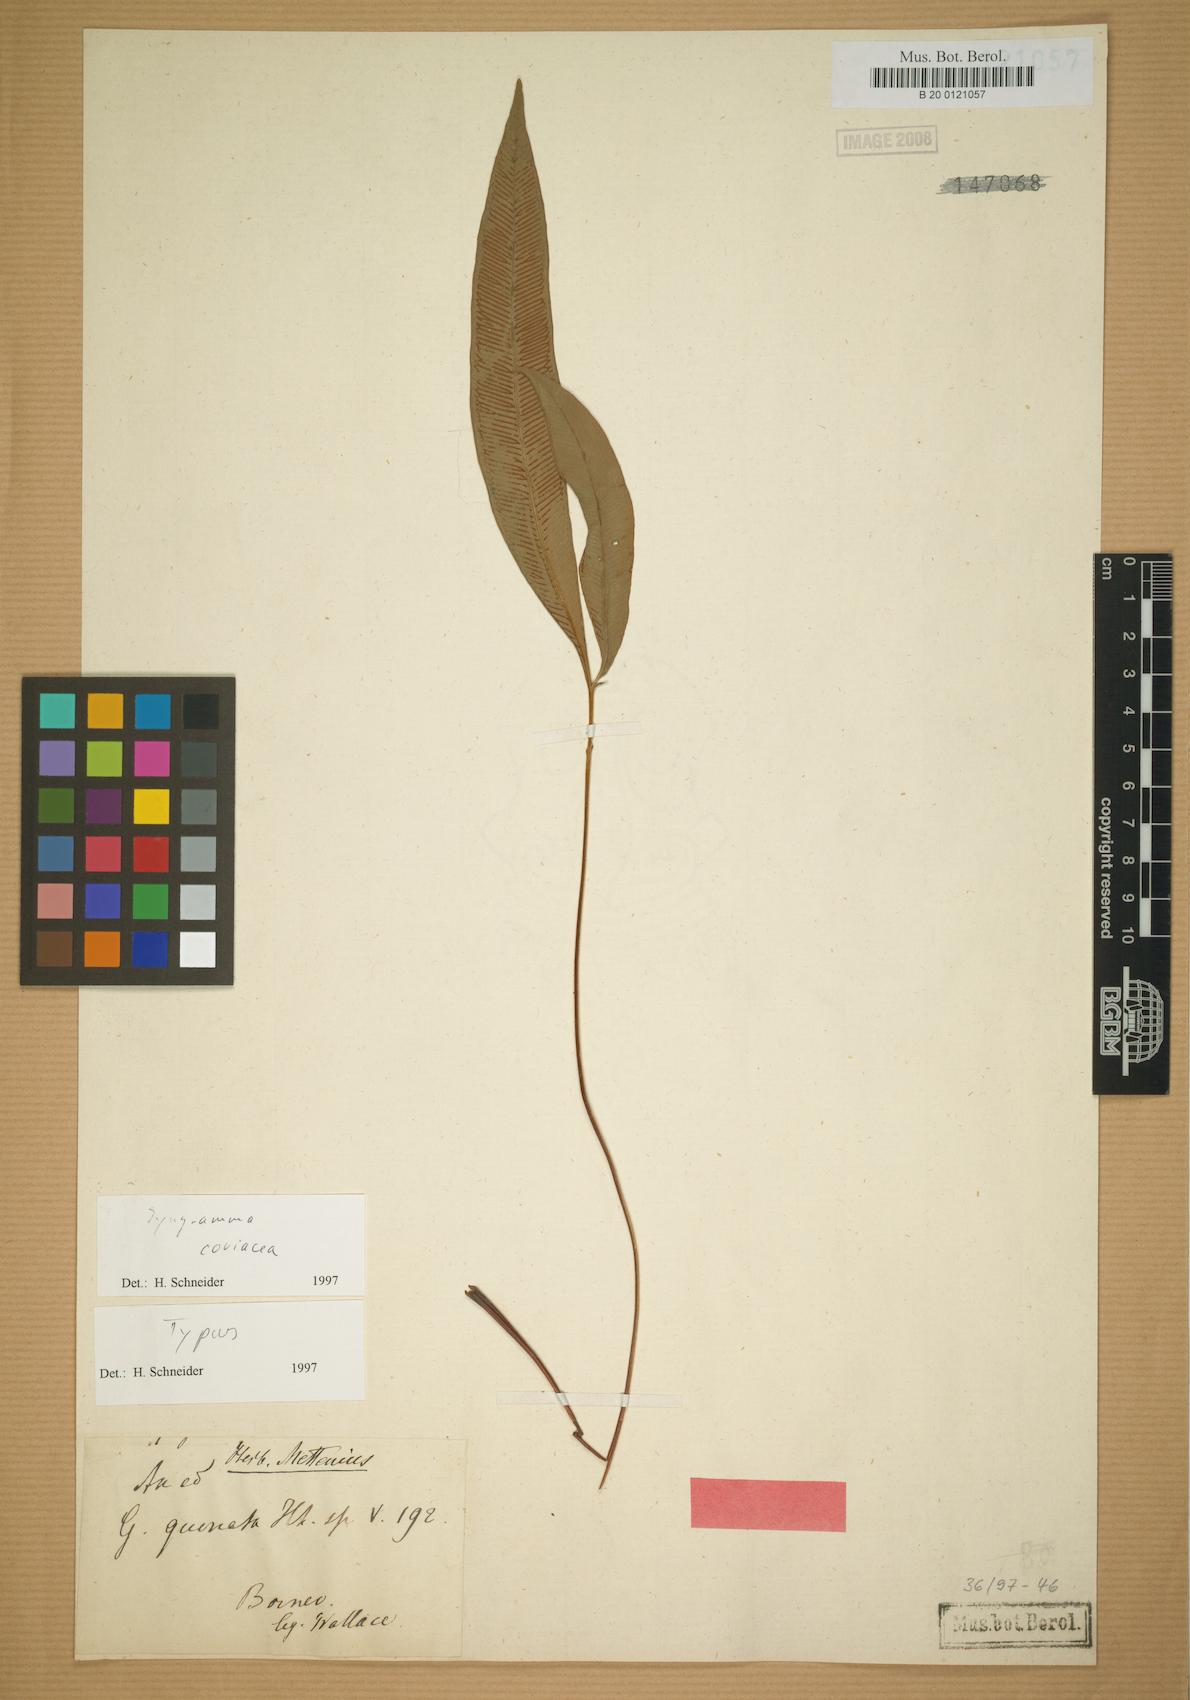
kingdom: Plantae
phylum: Tracheophyta
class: Polypodiopsida
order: Polypodiales
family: Pteridaceae
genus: Syngramma
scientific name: Syngramma coriacea
